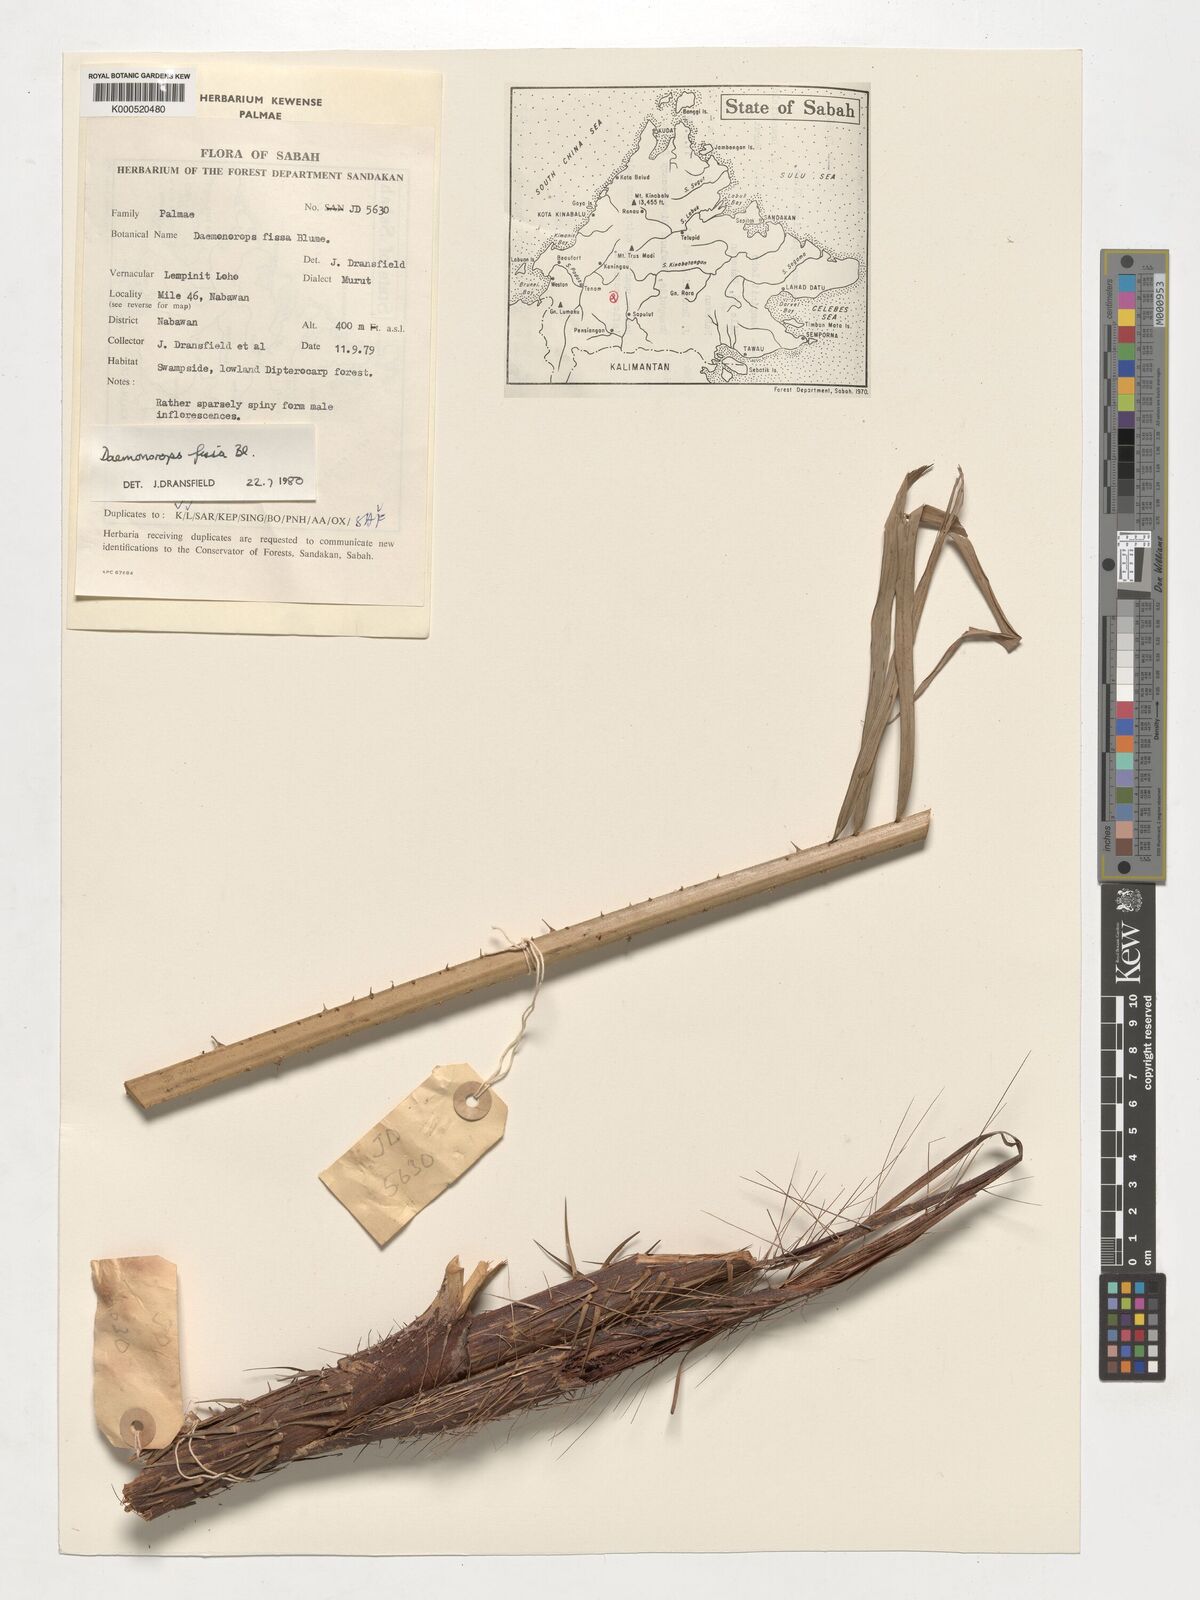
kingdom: Plantae
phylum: Tracheophyta
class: Liliopsida
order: Arecales
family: Arecaceae
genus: Calamus
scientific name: Calamus melanochaetes
